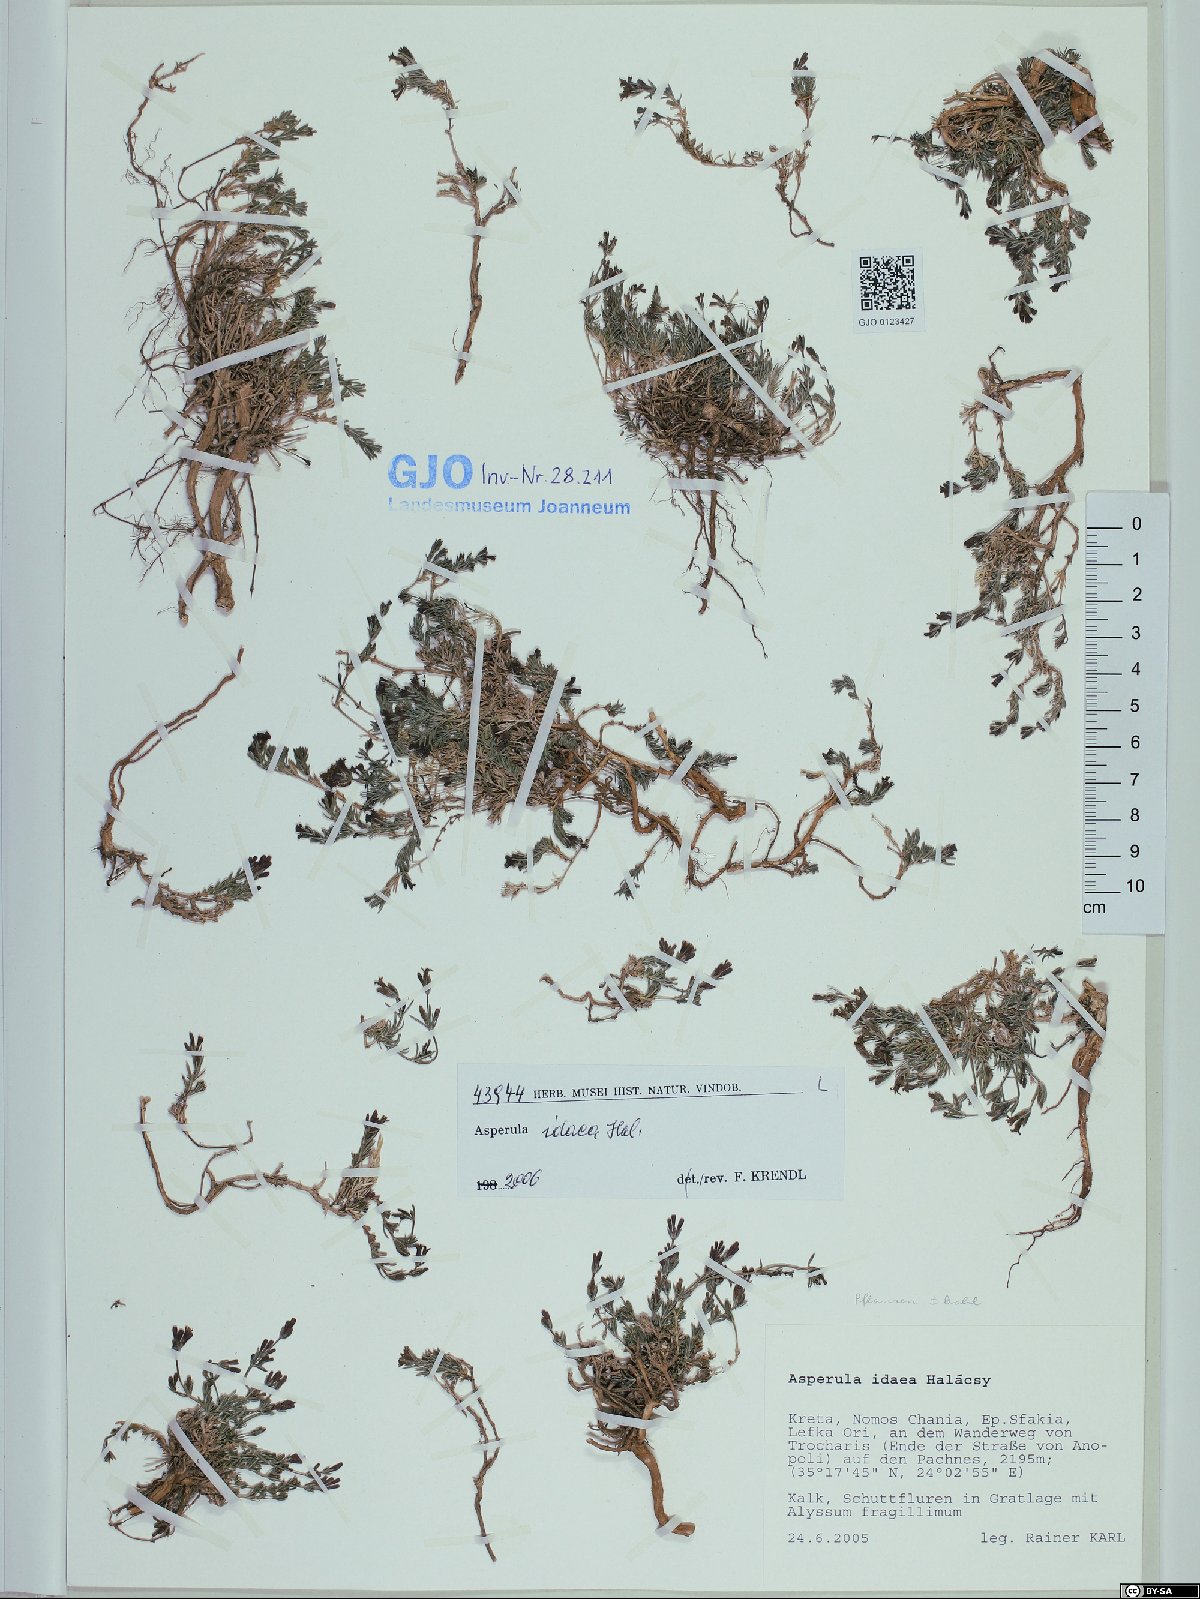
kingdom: Plantae
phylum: Tracheophyta
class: Magnoliopsida
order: Gentianales
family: Rubiaceae
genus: Cynanchica
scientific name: Cynanchica idaea
